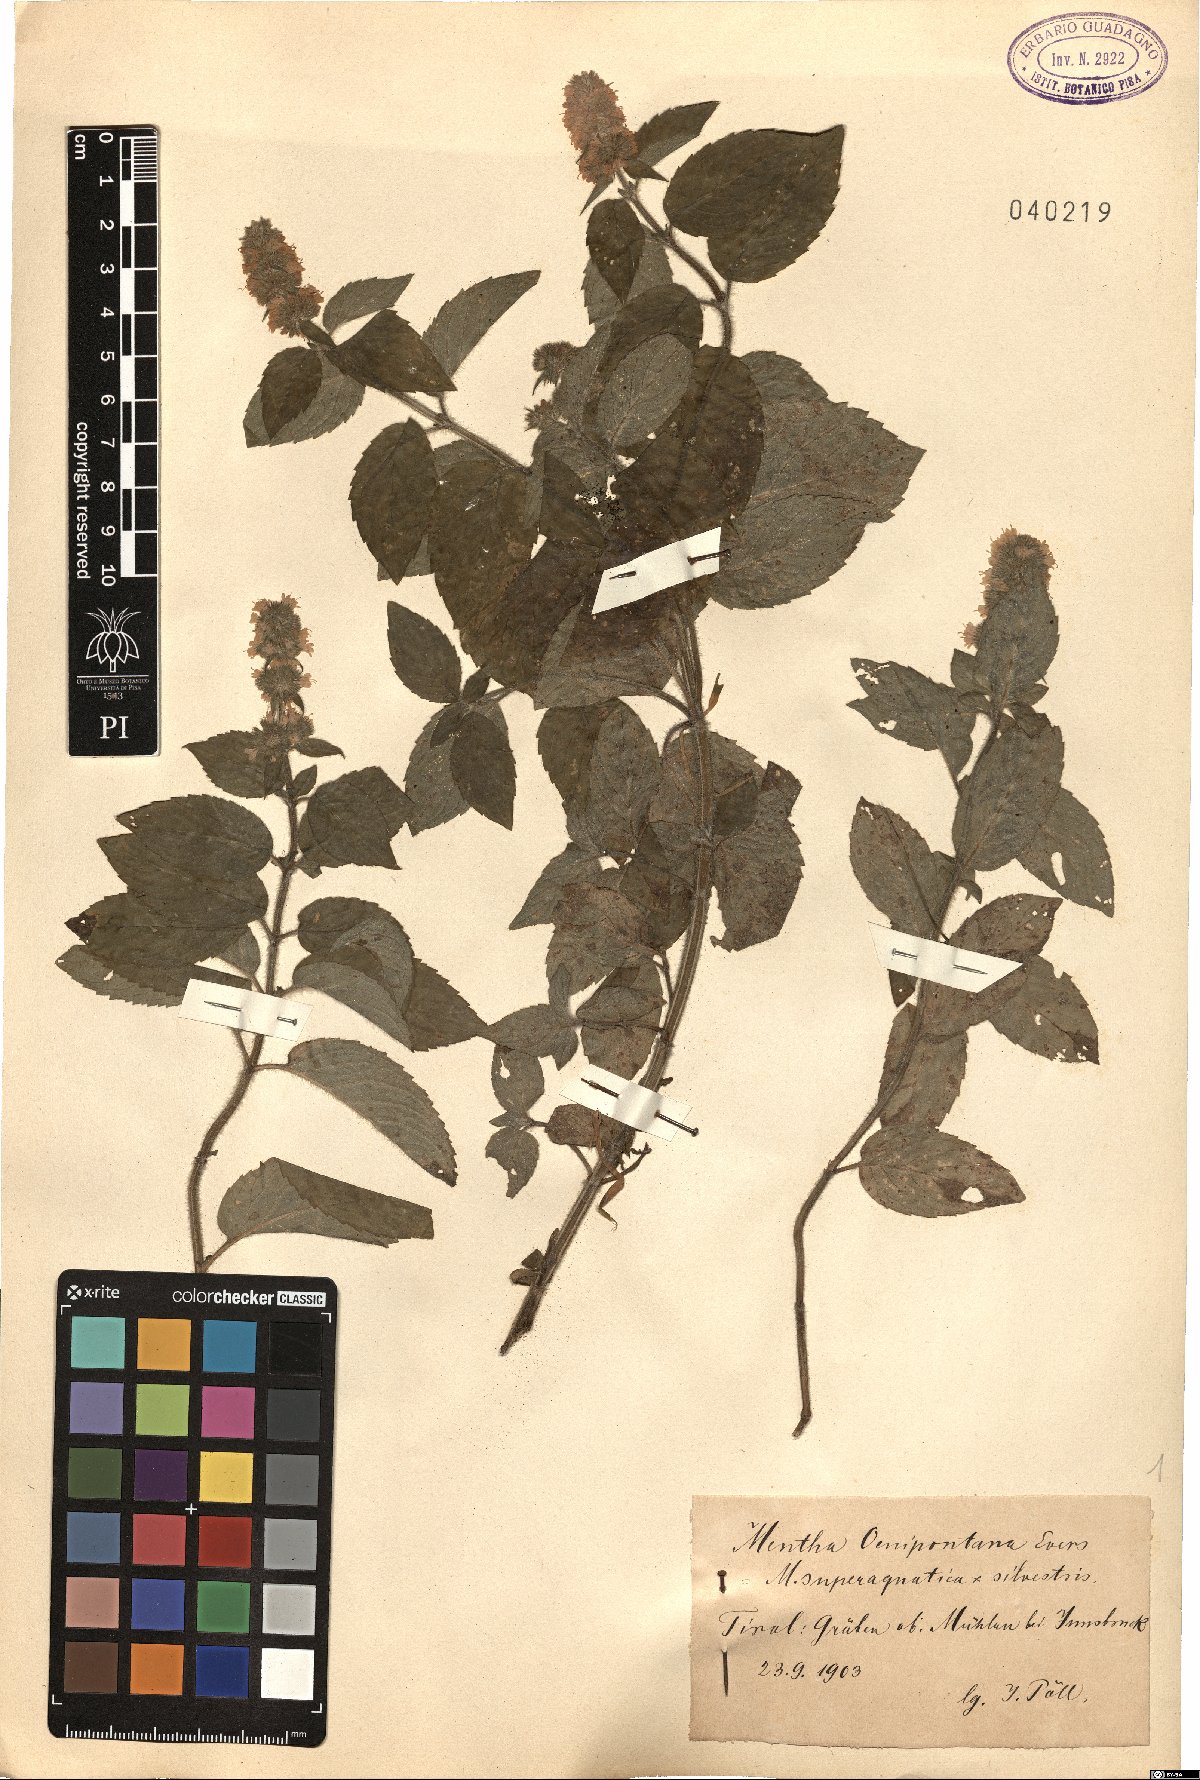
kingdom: Plantae
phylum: Tracheophyta
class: Magnoliopsida
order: Lamiales
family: Lamiaceae
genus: Mentha
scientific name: Mentha oenipontana
